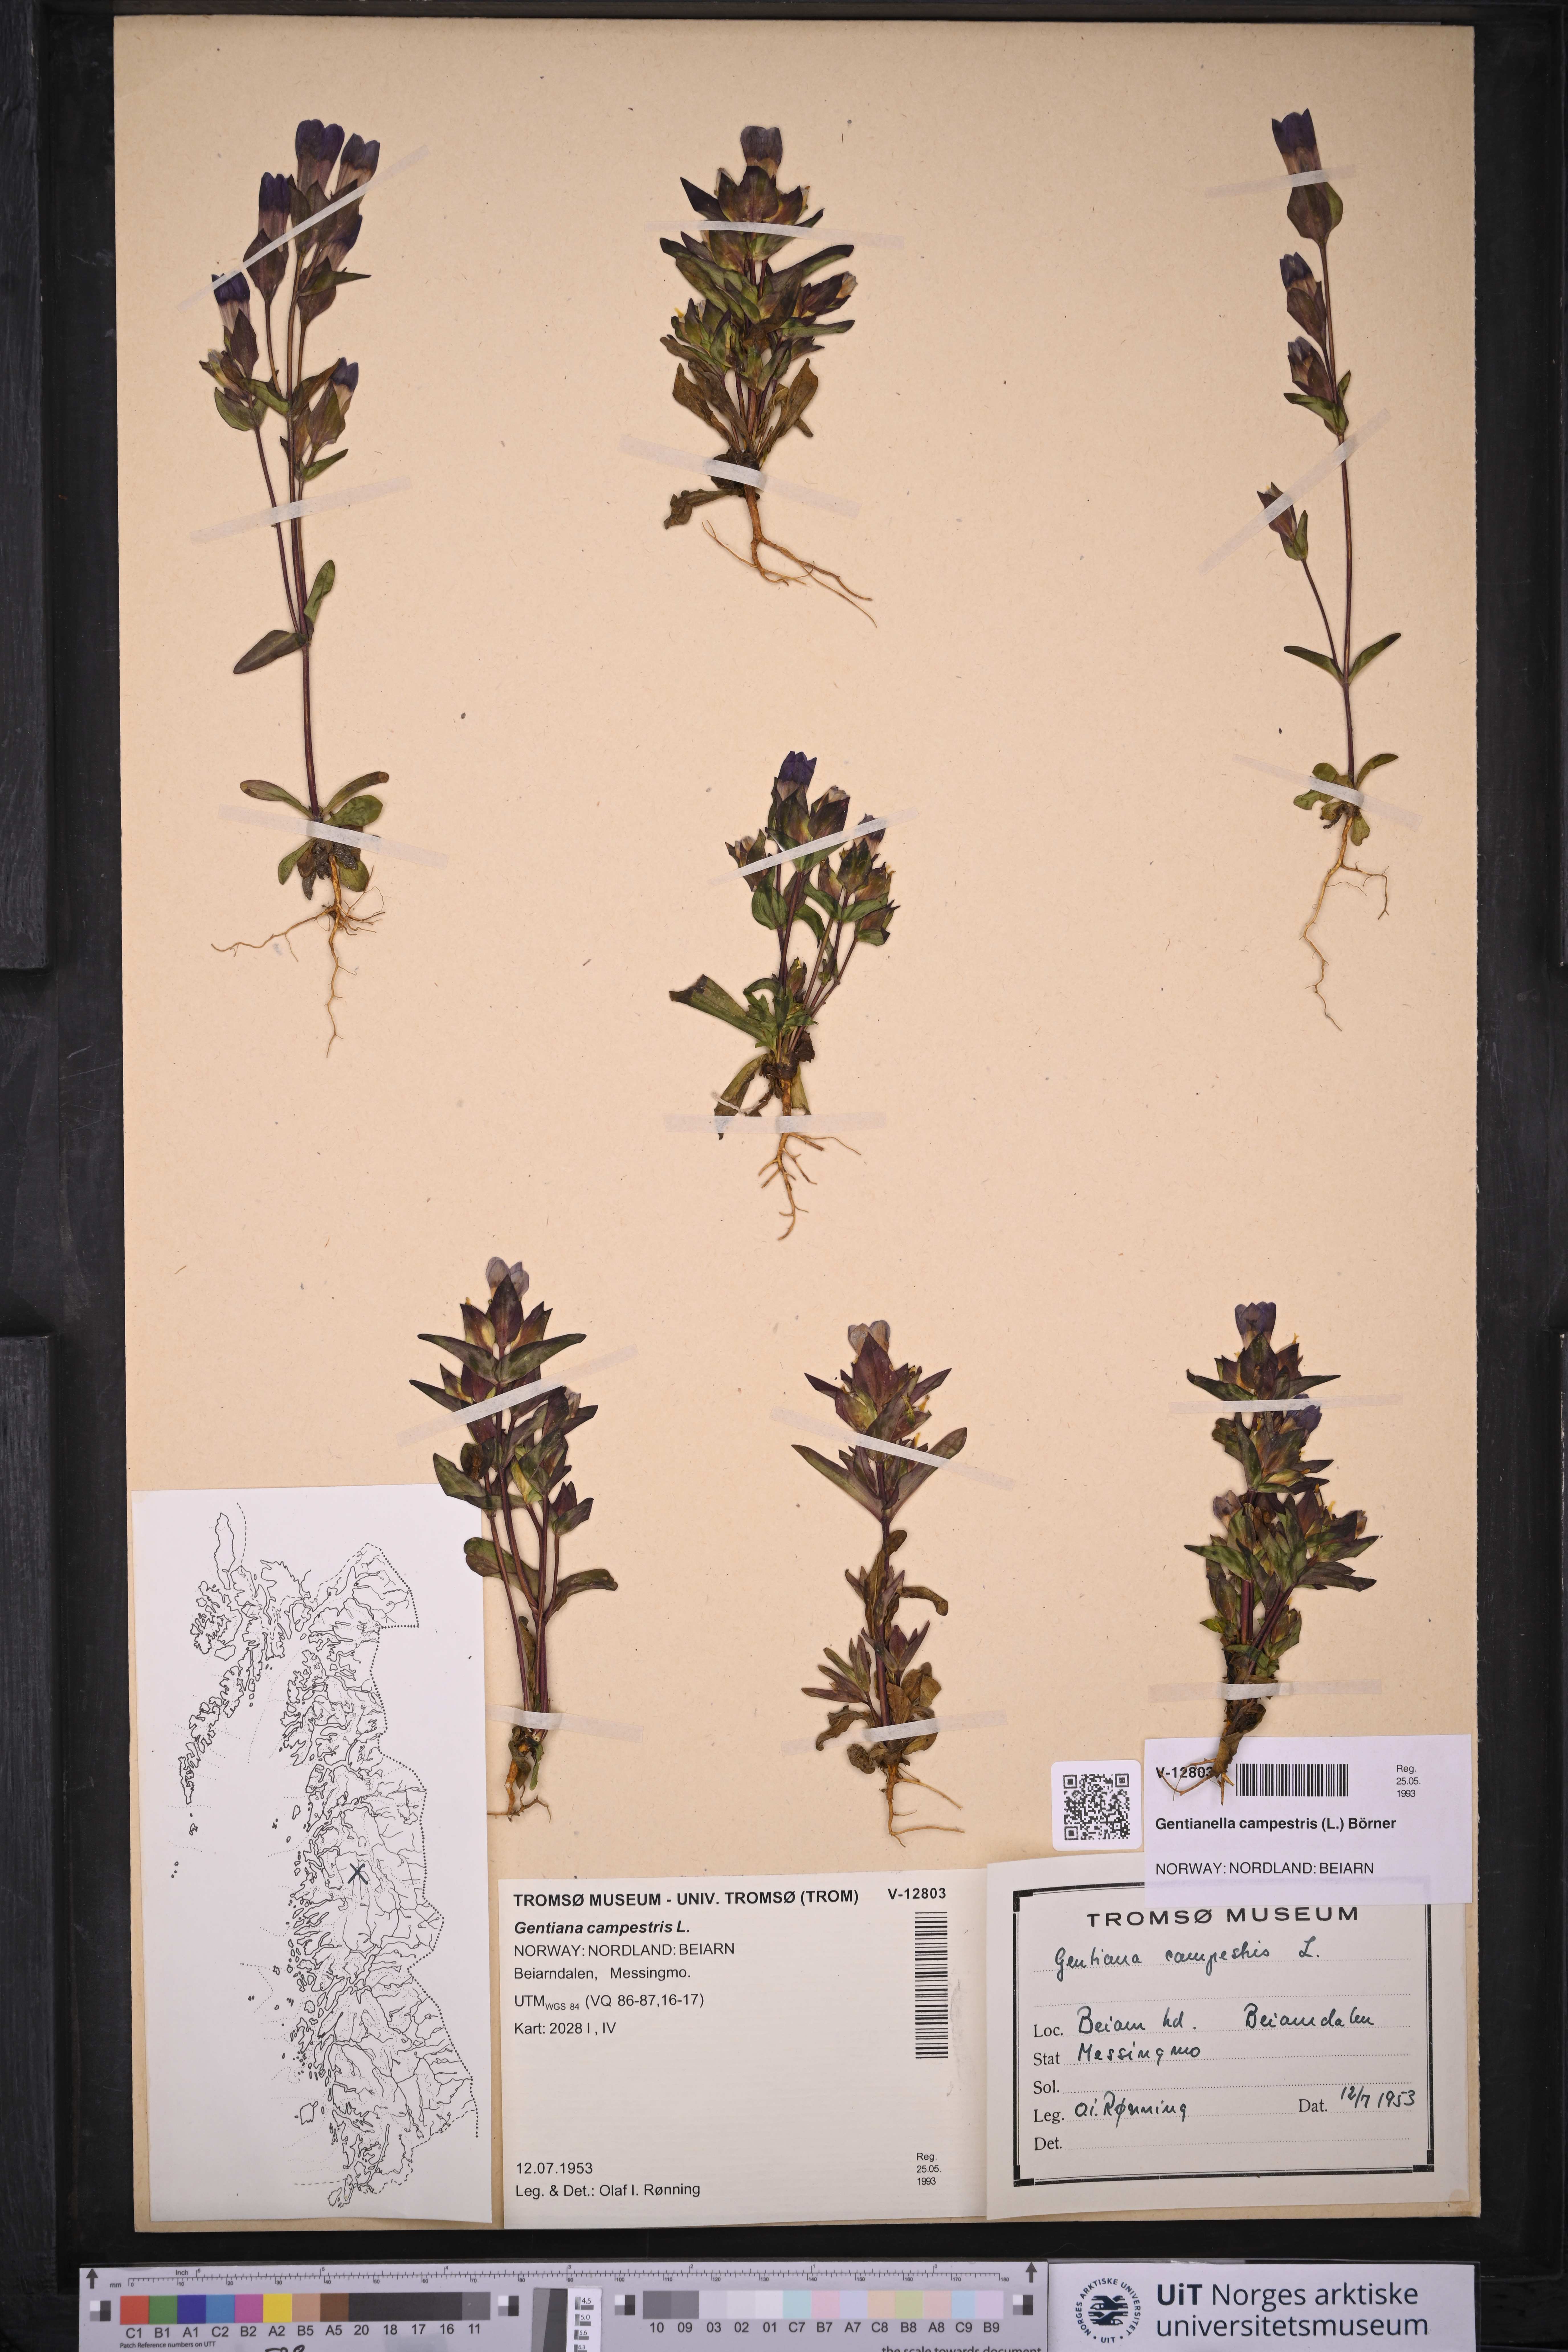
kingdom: Plantae
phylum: Tracheophyta
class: Magnoliopsida
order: Gentianales
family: Gentianaceae
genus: Gentianella
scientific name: Gentianella campestris
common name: Field gentian
